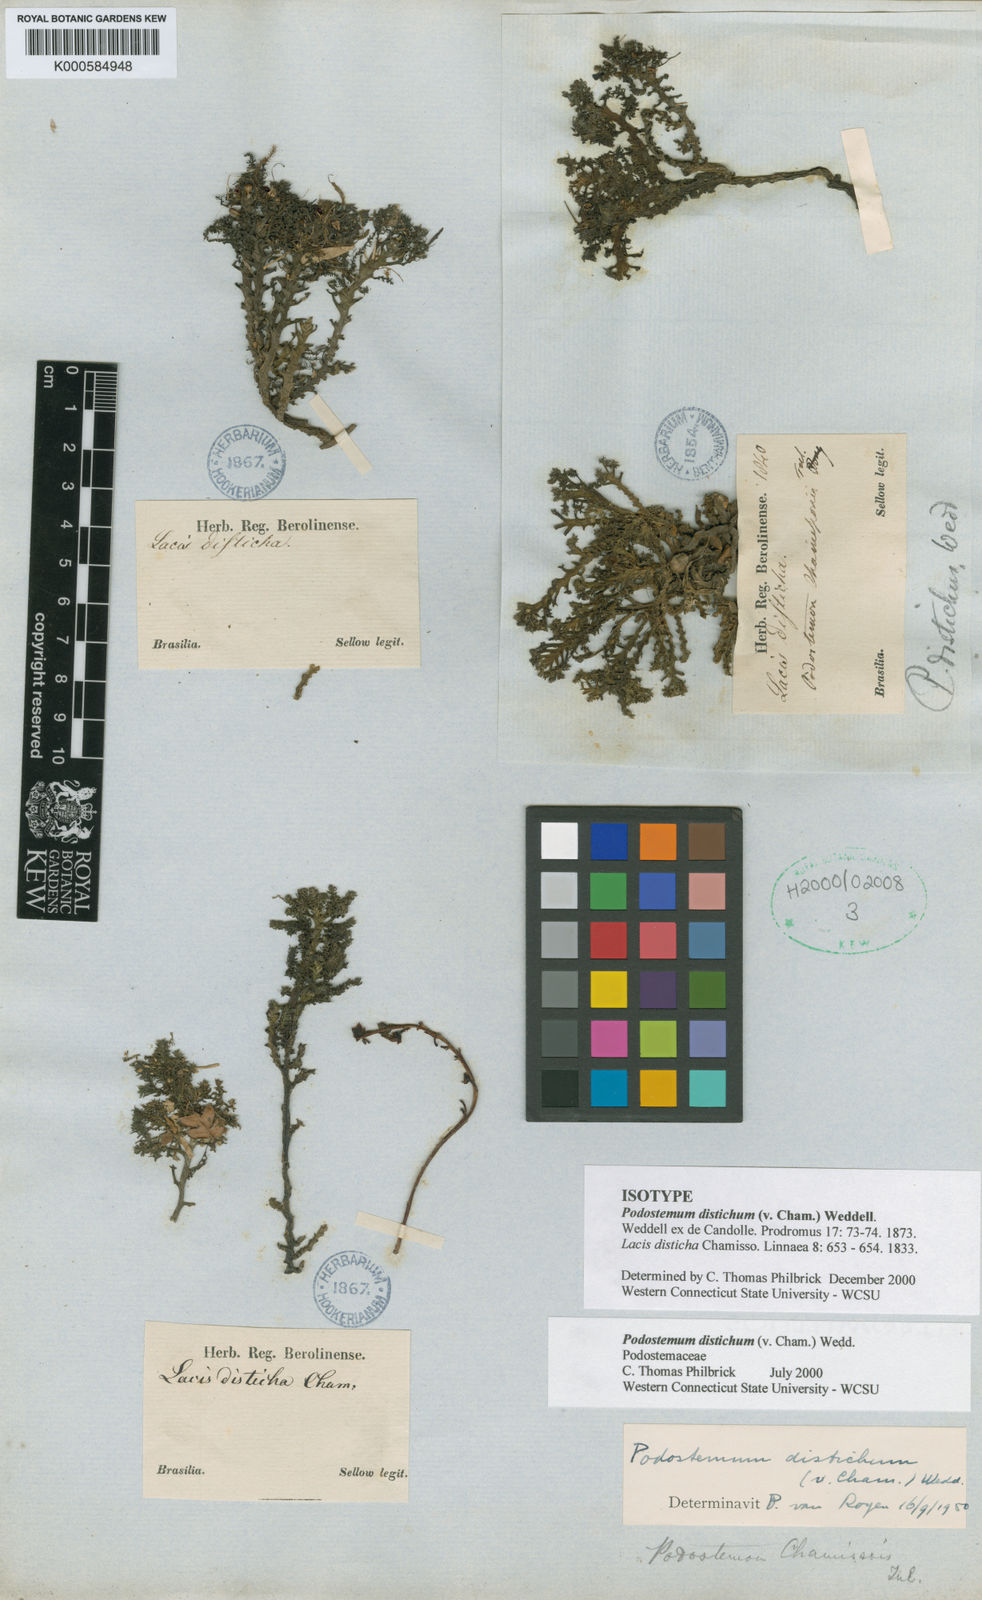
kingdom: Plantae
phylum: Tracheophyta
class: Magnoliopsida
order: Malpighiales
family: Podostemaceae
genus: Podostemum
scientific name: Podostemum distichum
